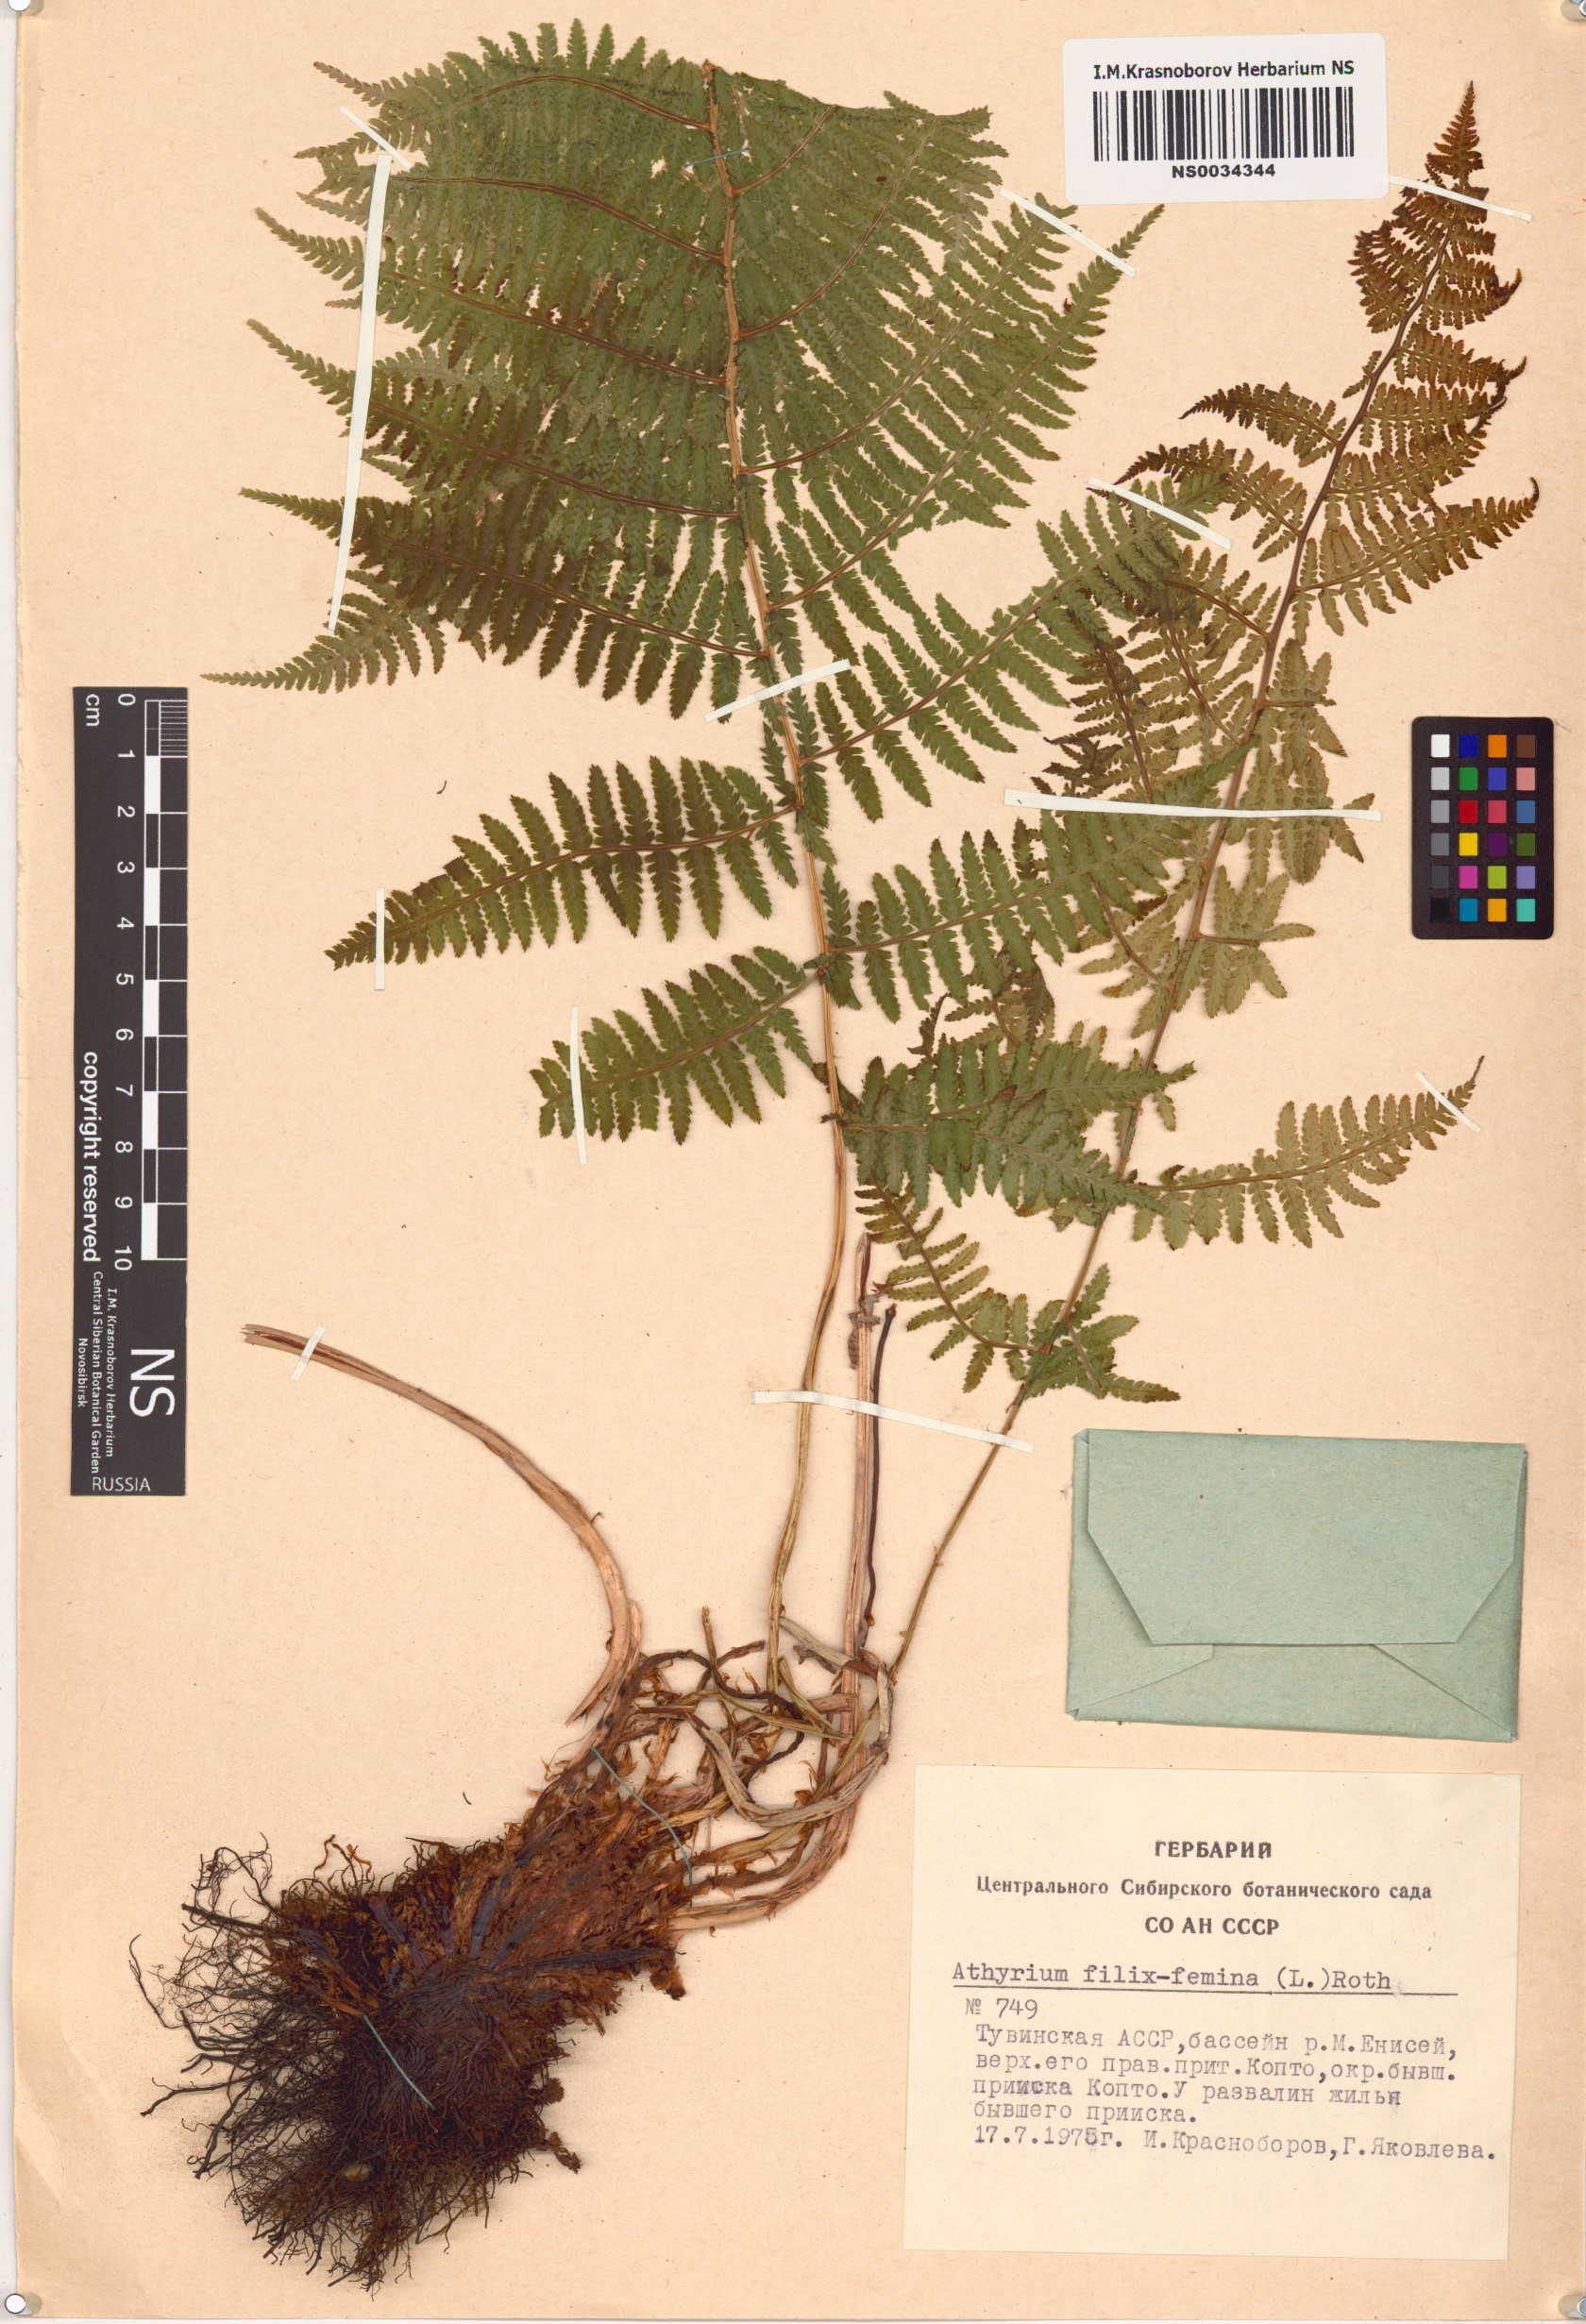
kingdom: Plantae
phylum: Tracheophyta
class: Polypodiopsida
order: Polypodiales
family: Athyriaceae
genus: Athyrium
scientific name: Athyrium filix-femina
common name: Lady fern
